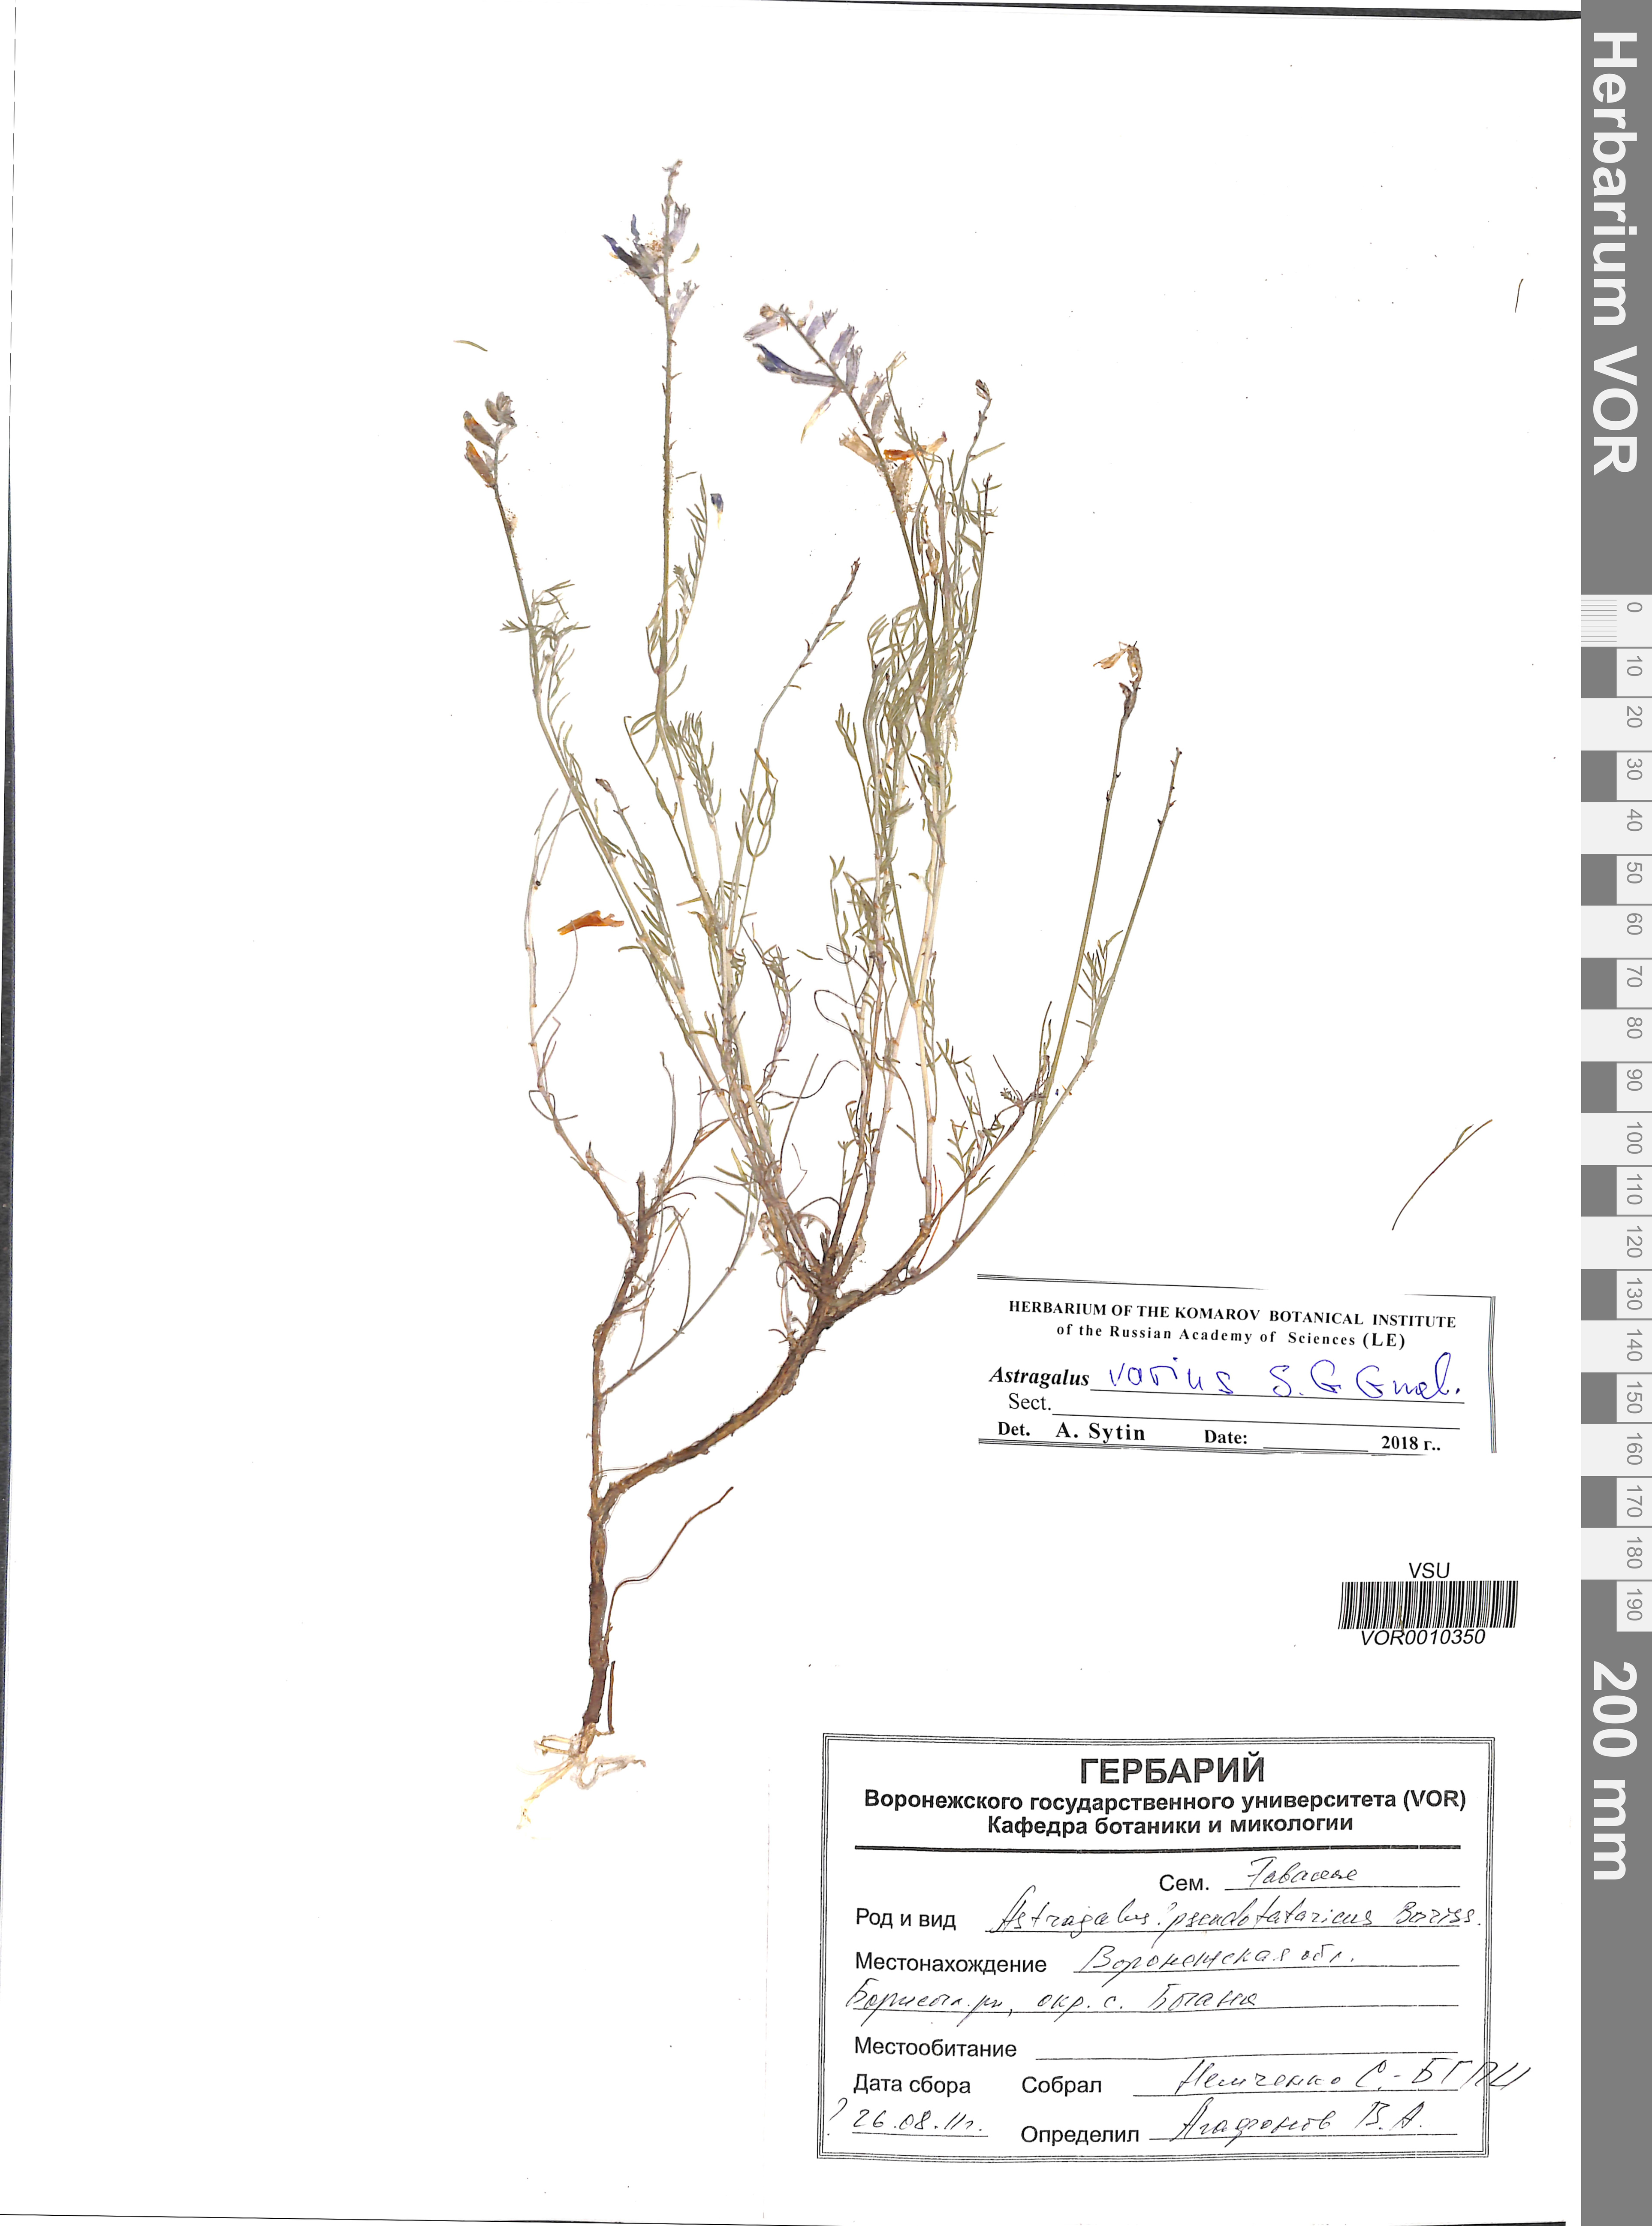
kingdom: Plantae
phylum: Tracheophyta
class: Magnoliopsida
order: Fabales
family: Fabaceae
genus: Astragalus
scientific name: Astragalus varius
